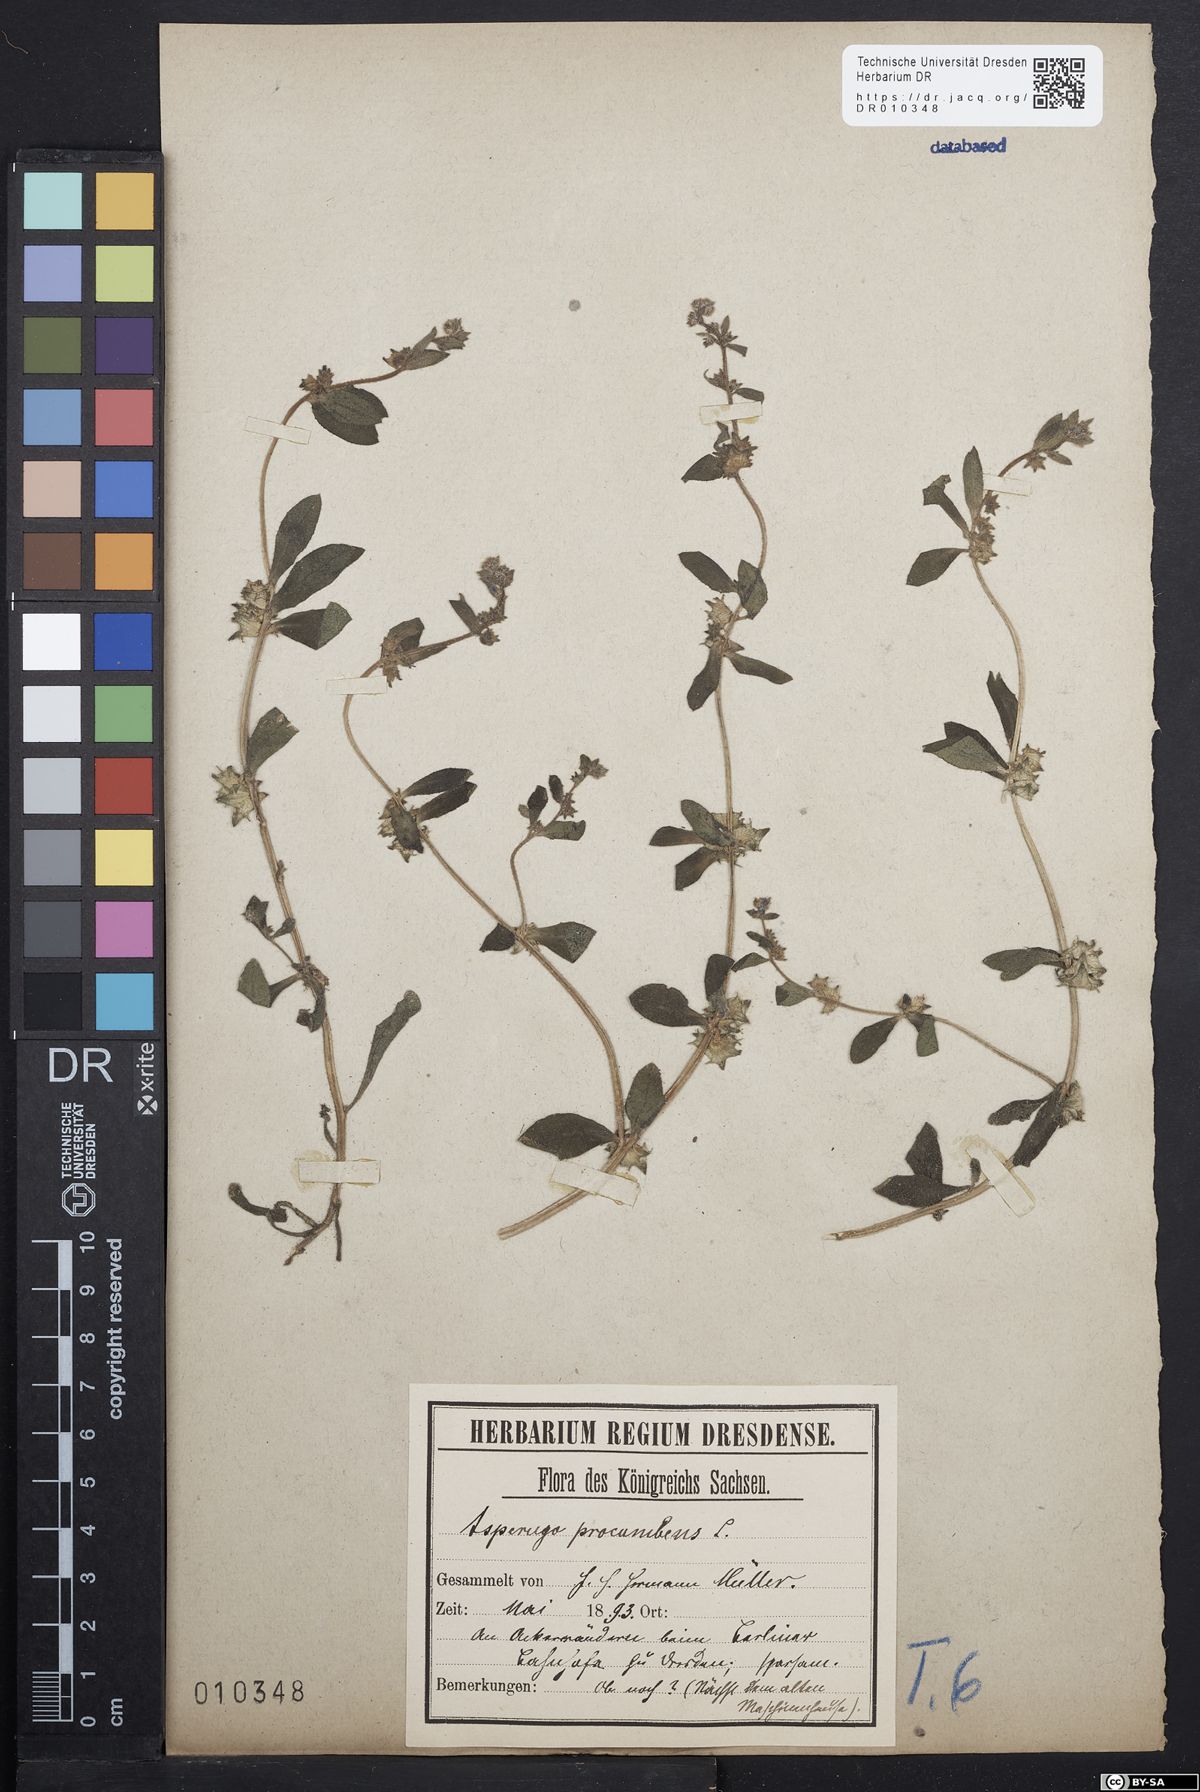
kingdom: Plantae
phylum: Tracheophyta
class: Magnoliopsida
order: Boraginales
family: Boraginaceae
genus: Asperugo
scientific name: Asperugo procumbens
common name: Madwort
